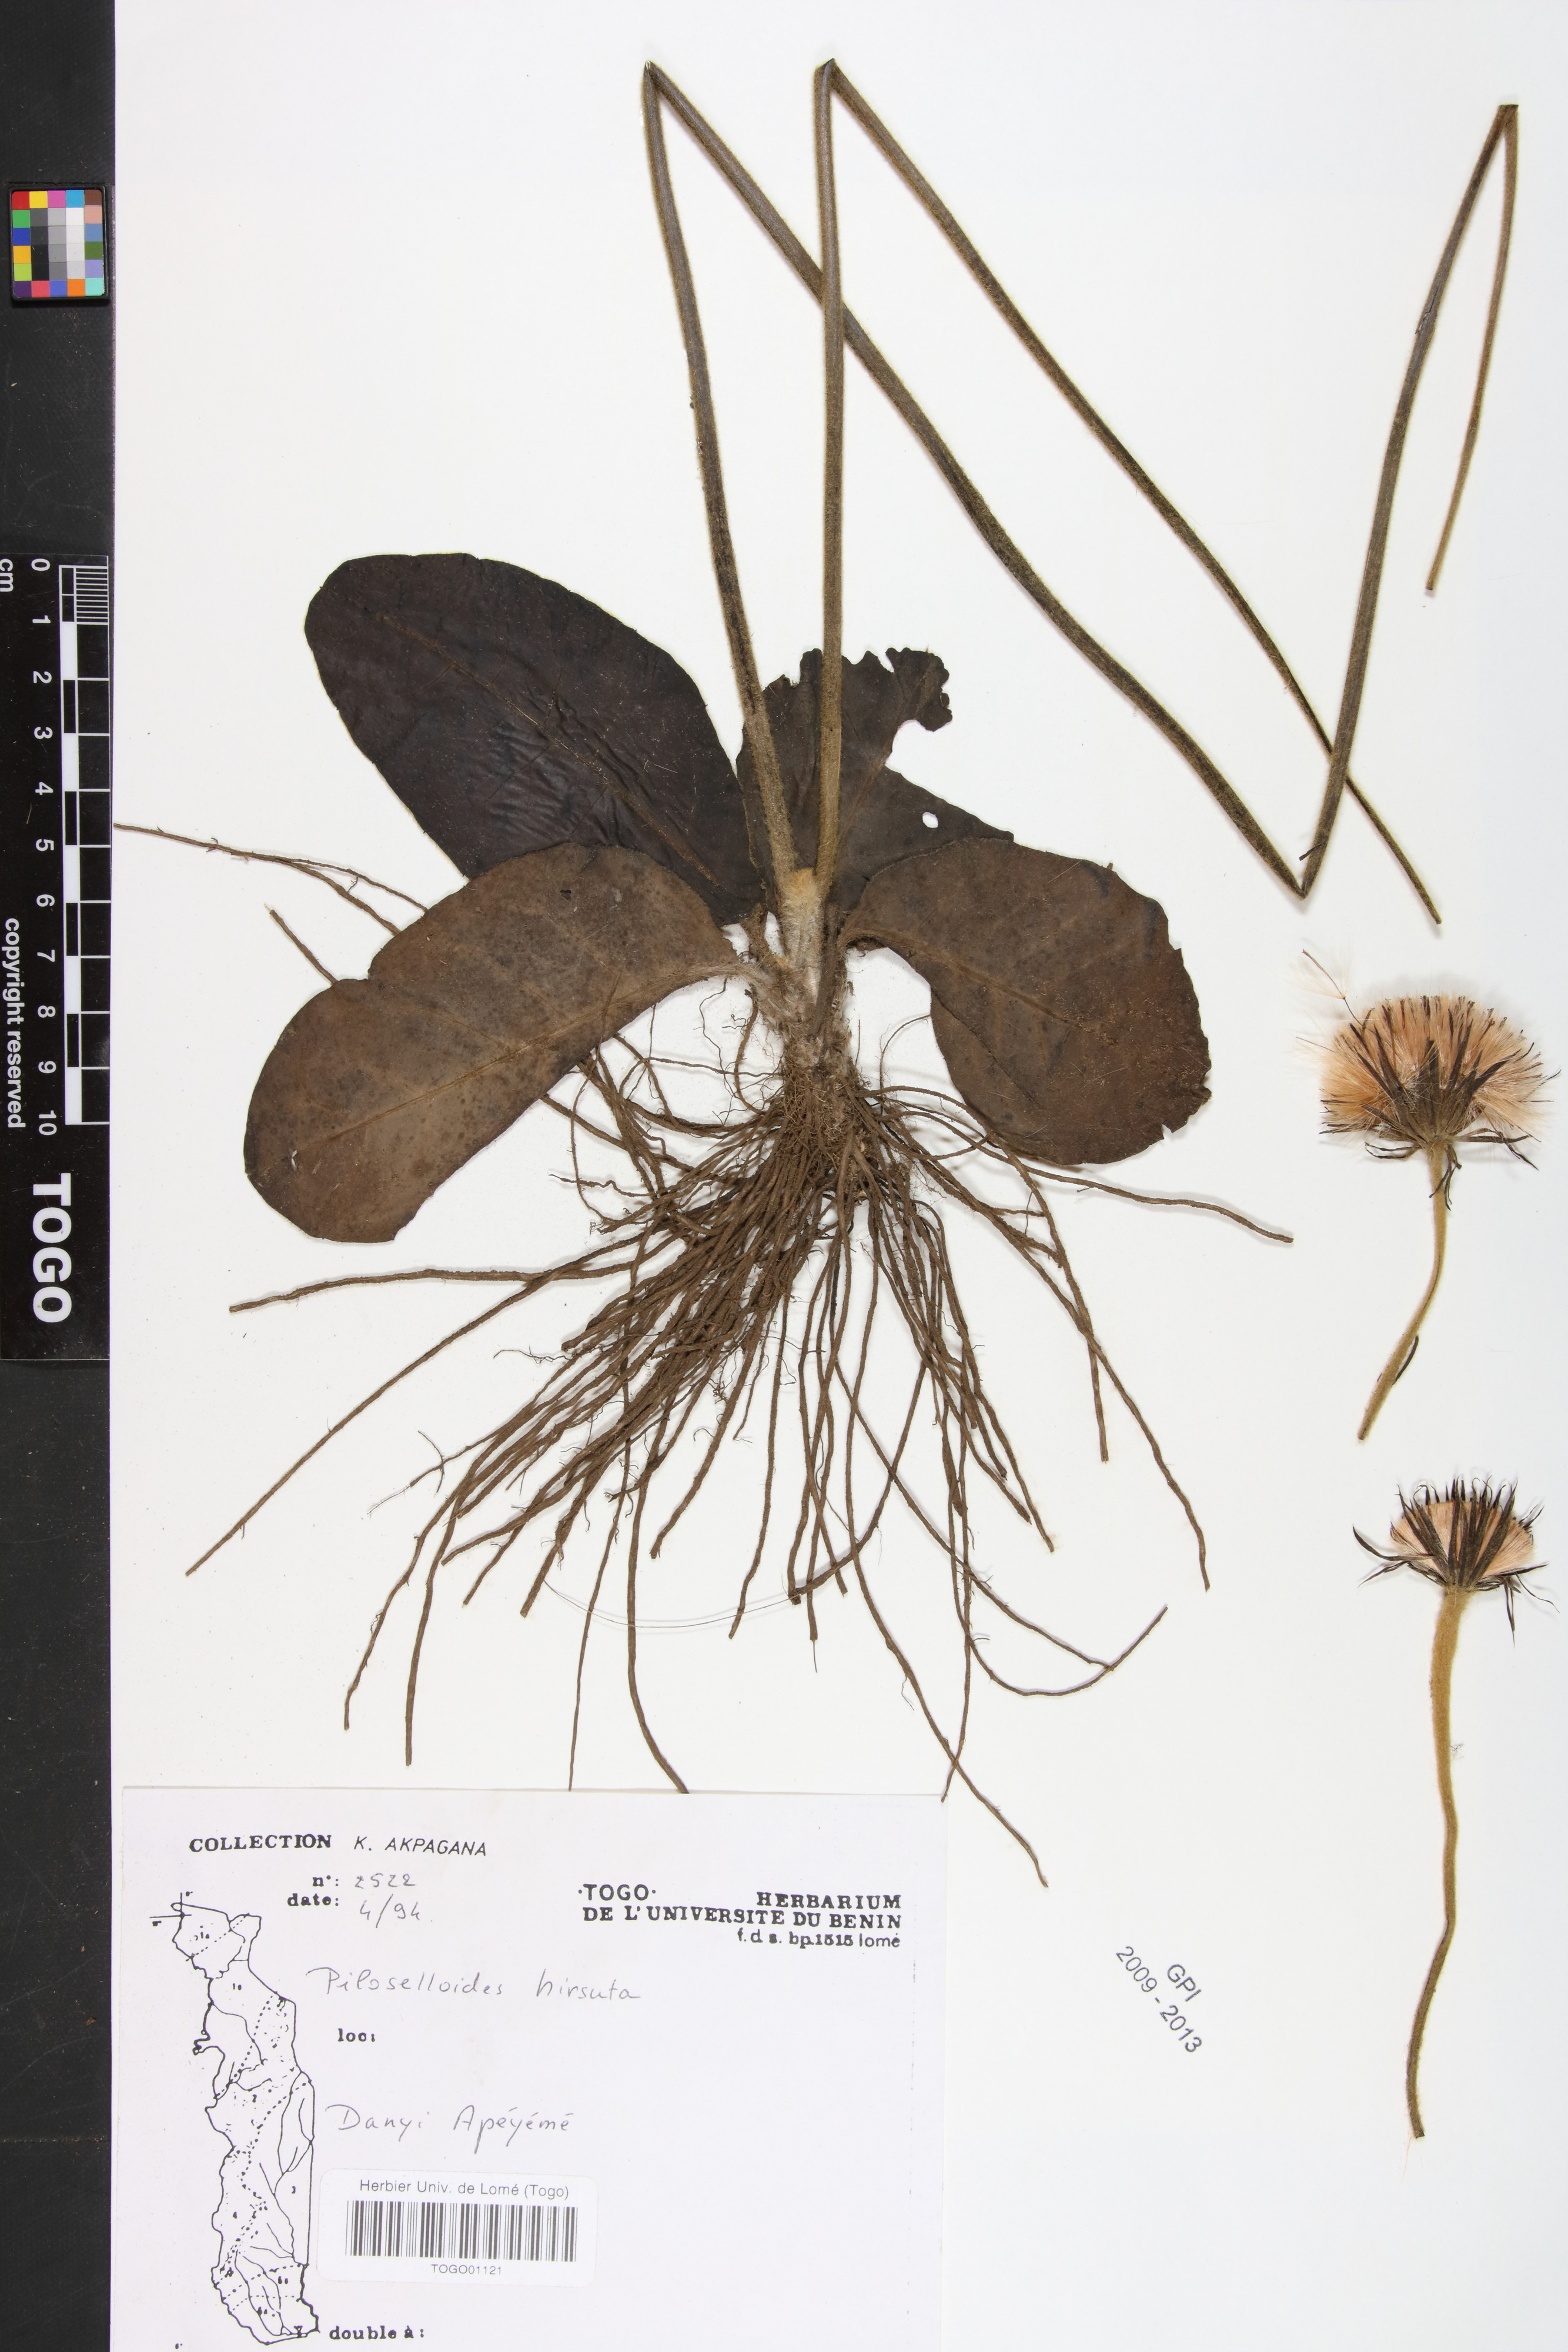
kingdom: Plantae
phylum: Tracheophyta
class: Magnoliopsida
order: Asterales
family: Asteraceae
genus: Piloselloides
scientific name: Piloselloides hirsuta
